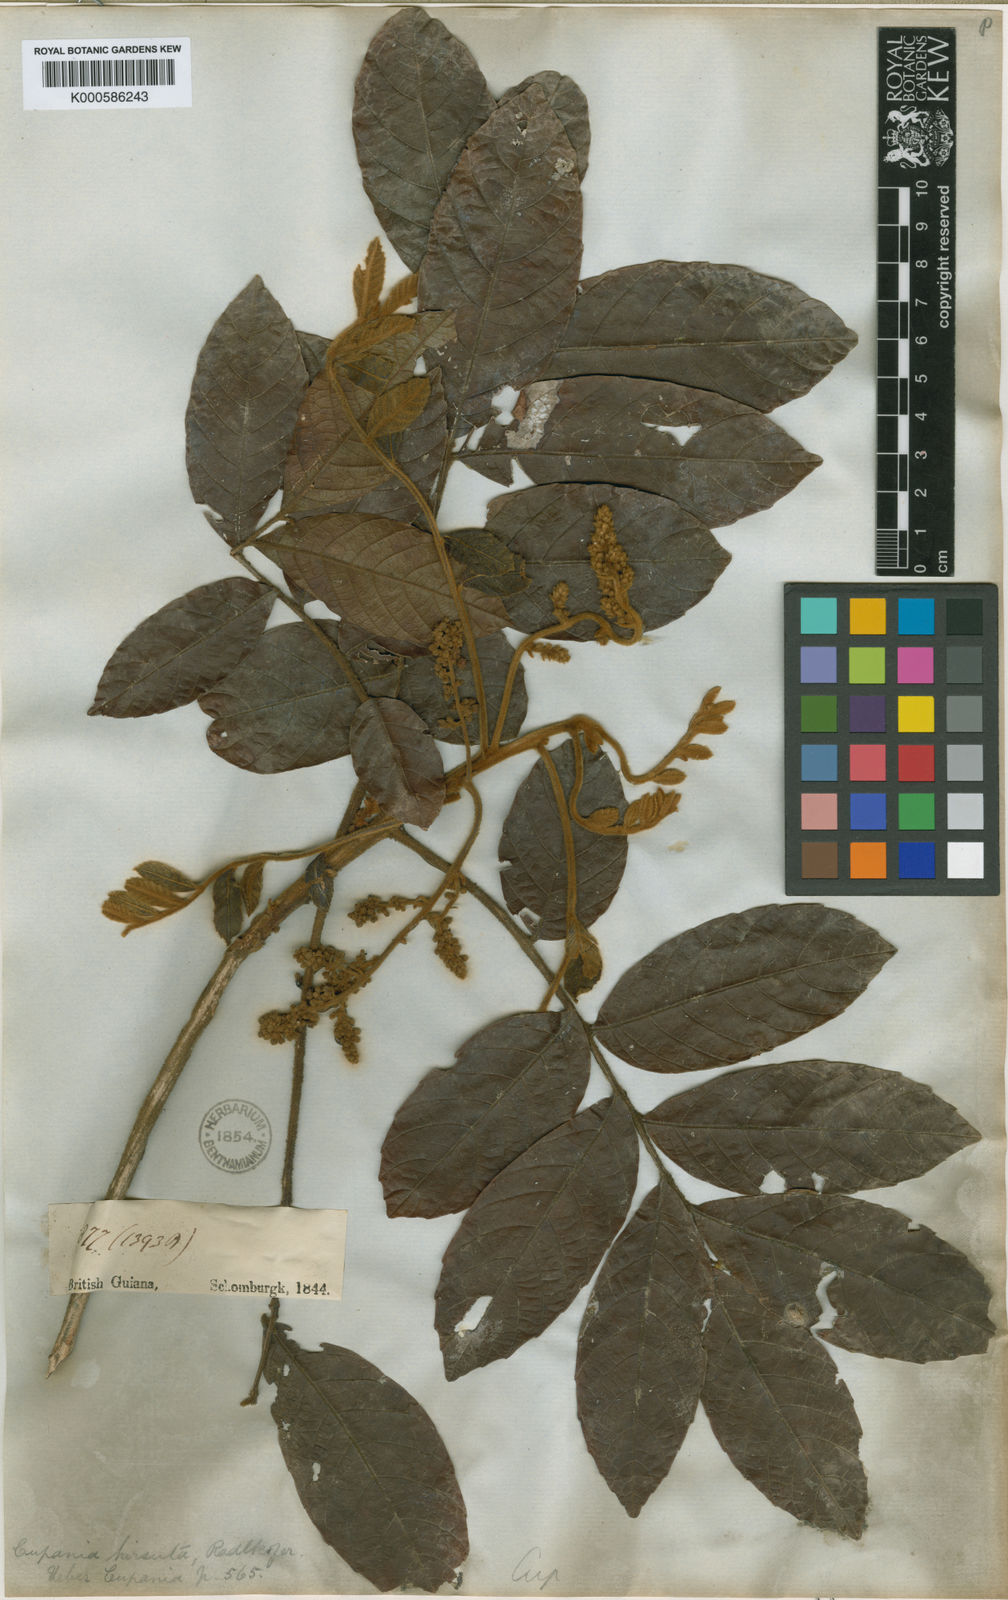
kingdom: Plantae
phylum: Tracheophyta
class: Magnoliopsida
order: Sapindales
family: Sapindaceae
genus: Cupania
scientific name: Cupania hirsuta
